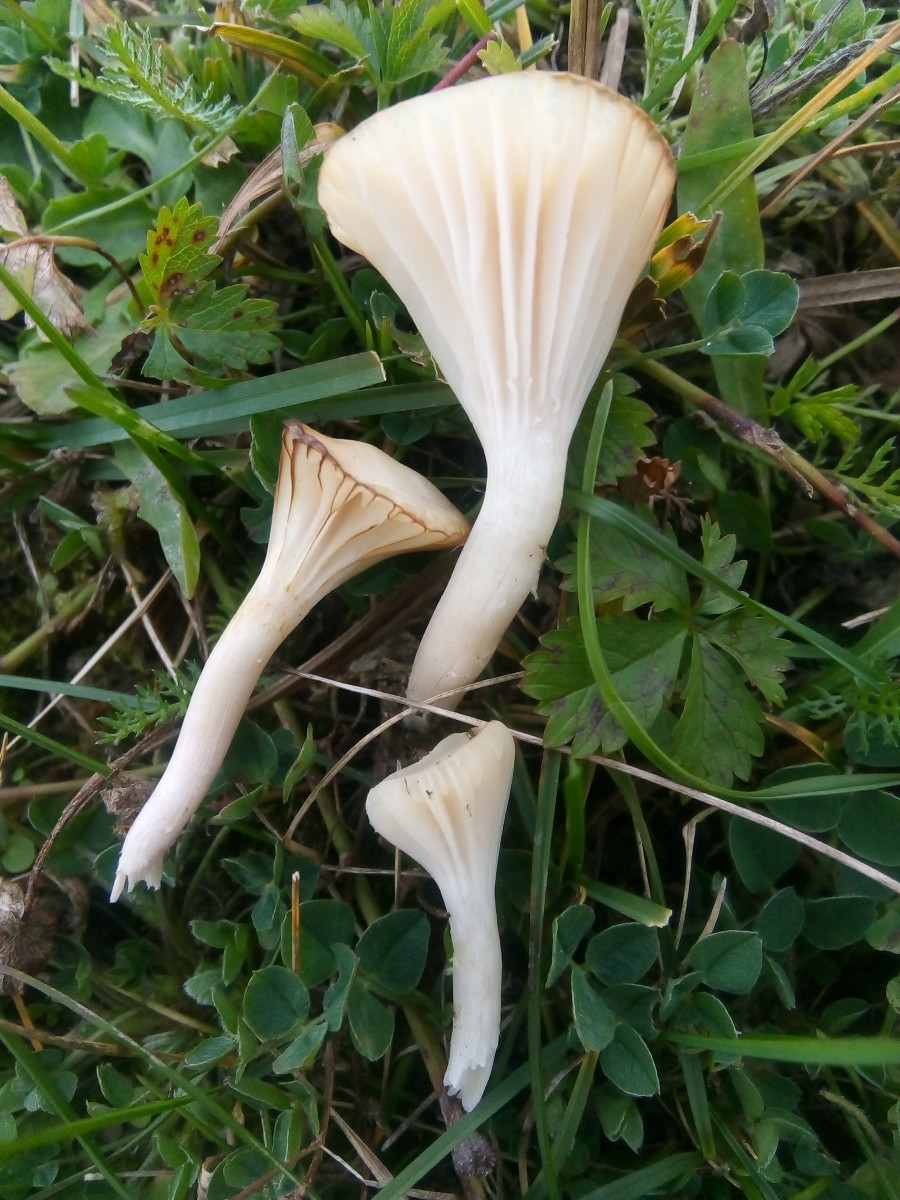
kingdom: Fungi
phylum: Basidiomycota
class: Agaricomycetes
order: Agaricales
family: Hygrophoraceae
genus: Cuphophyllus
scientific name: Cuphophyllus
